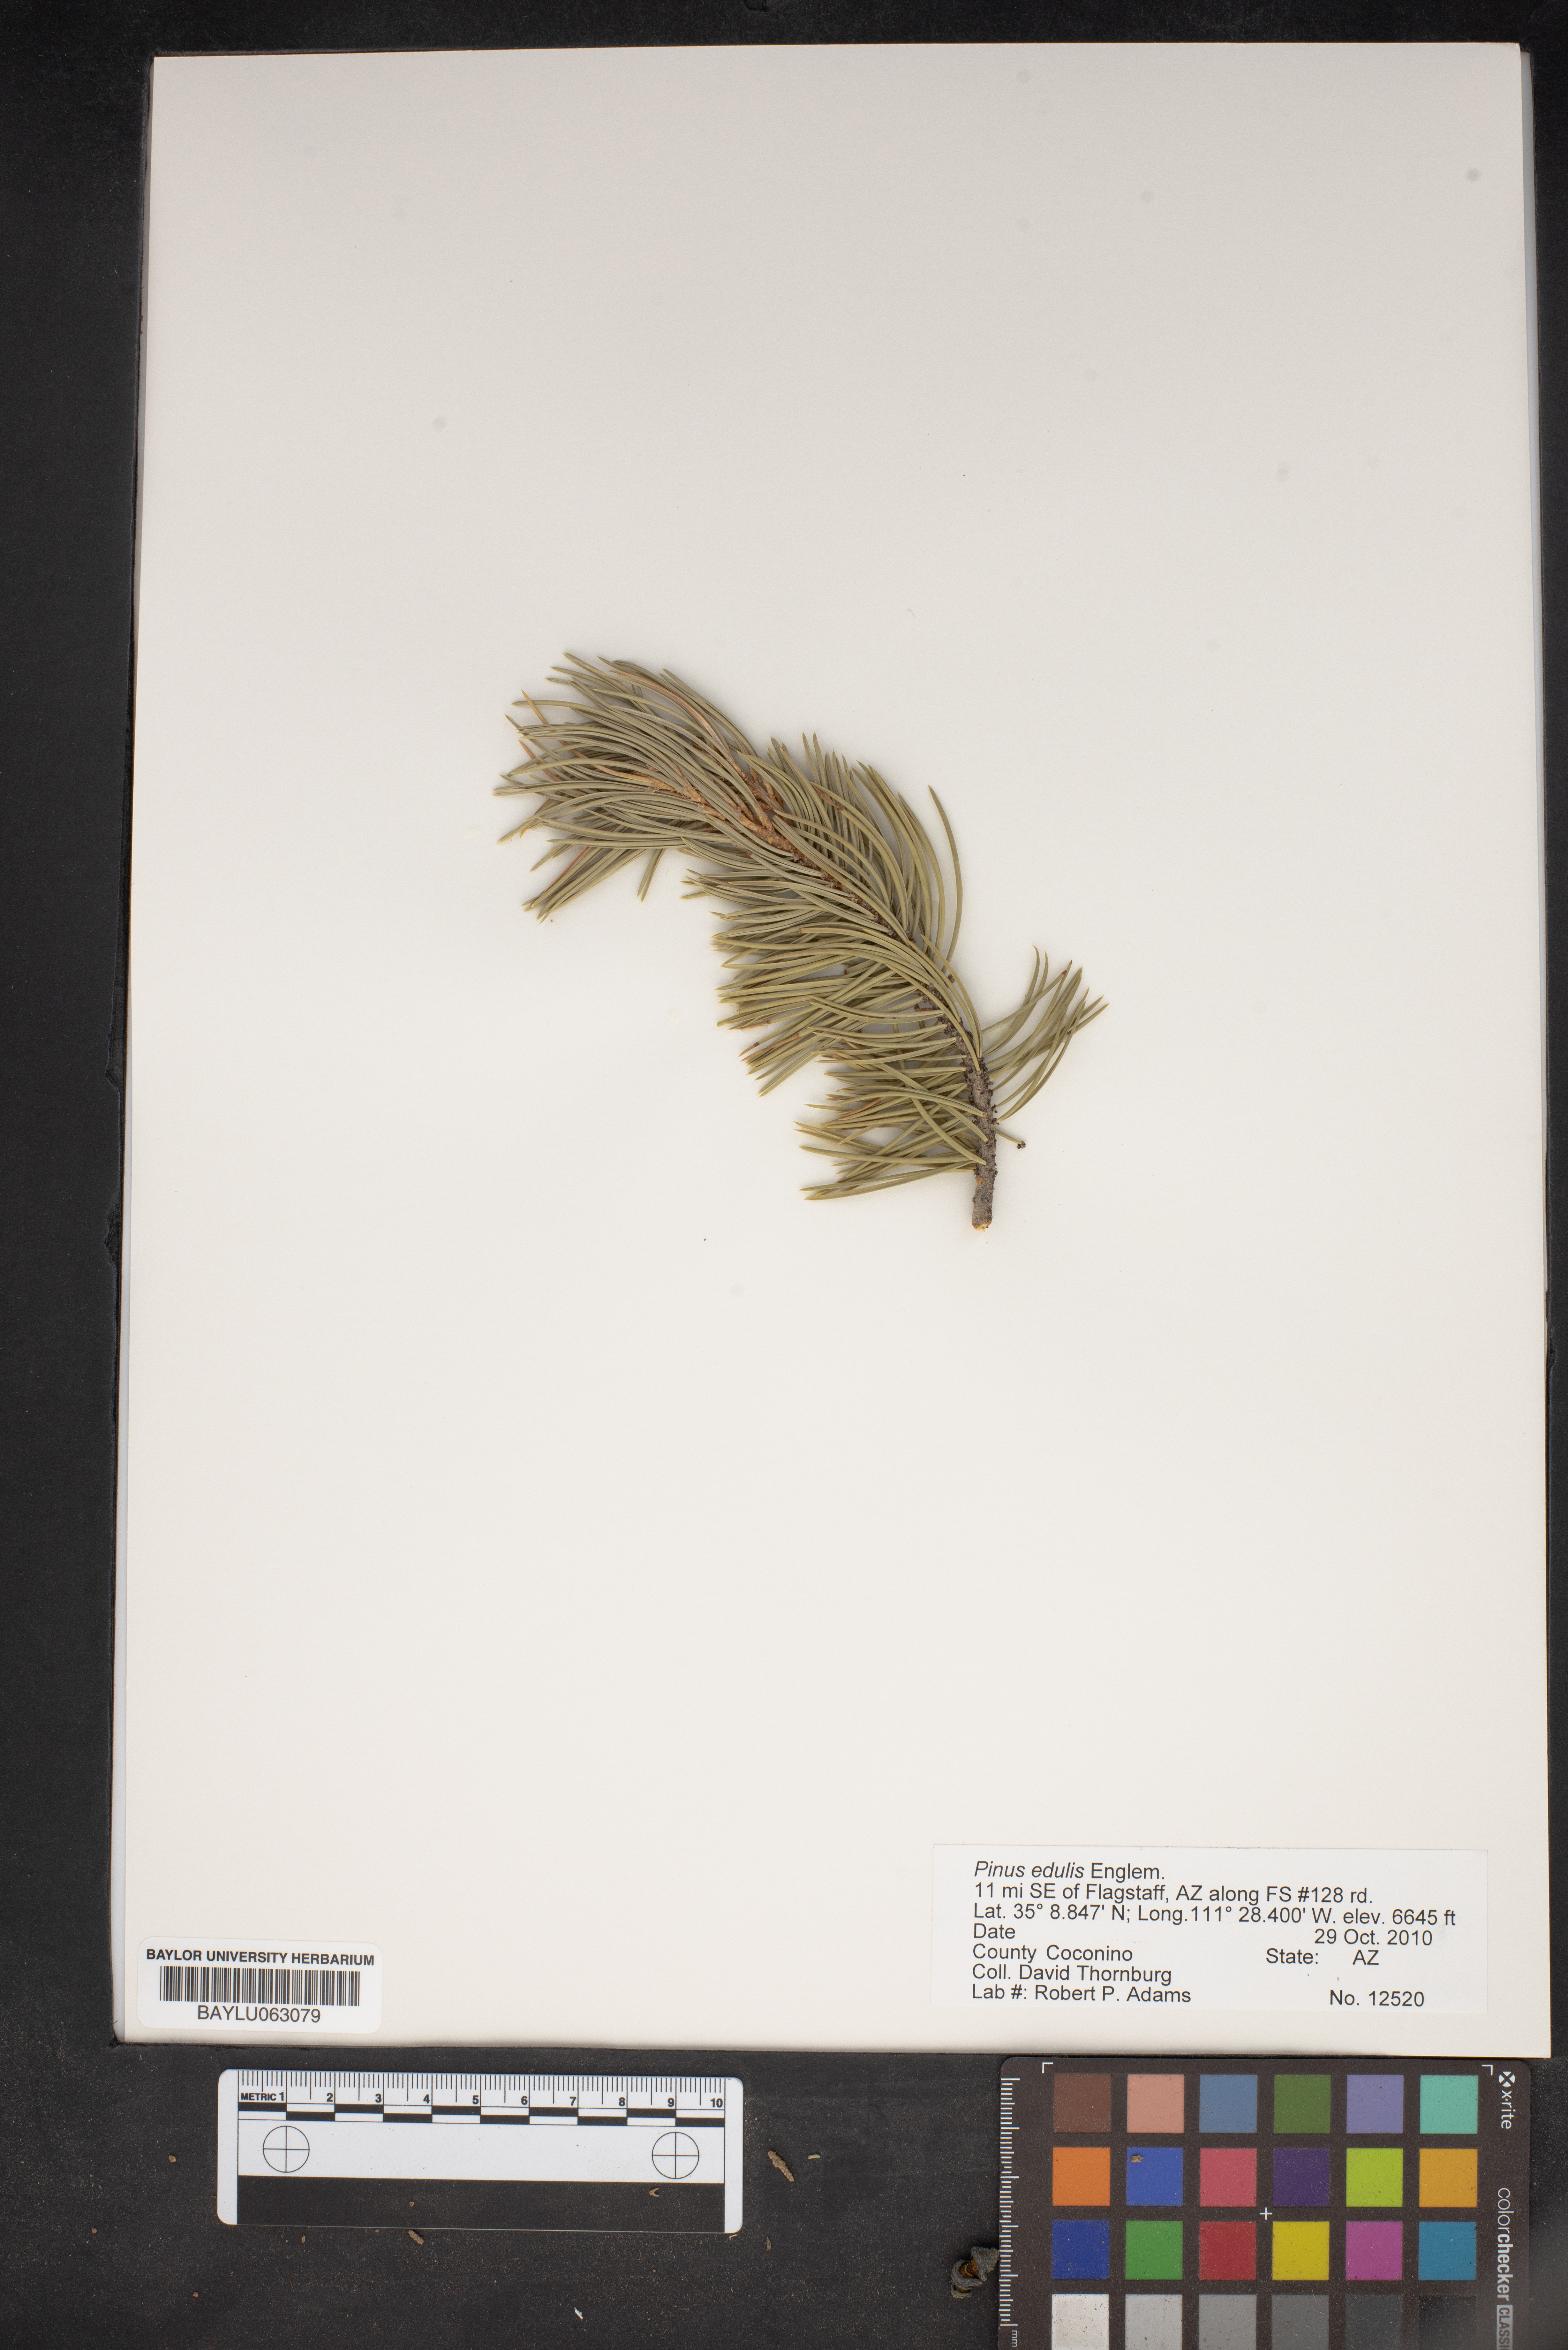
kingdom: Plantae
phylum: Tracheophyta
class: Pinopsida
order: Pinales
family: Pinaceae
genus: Pinus
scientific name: Pinus edulis
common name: Colorado pinyon
